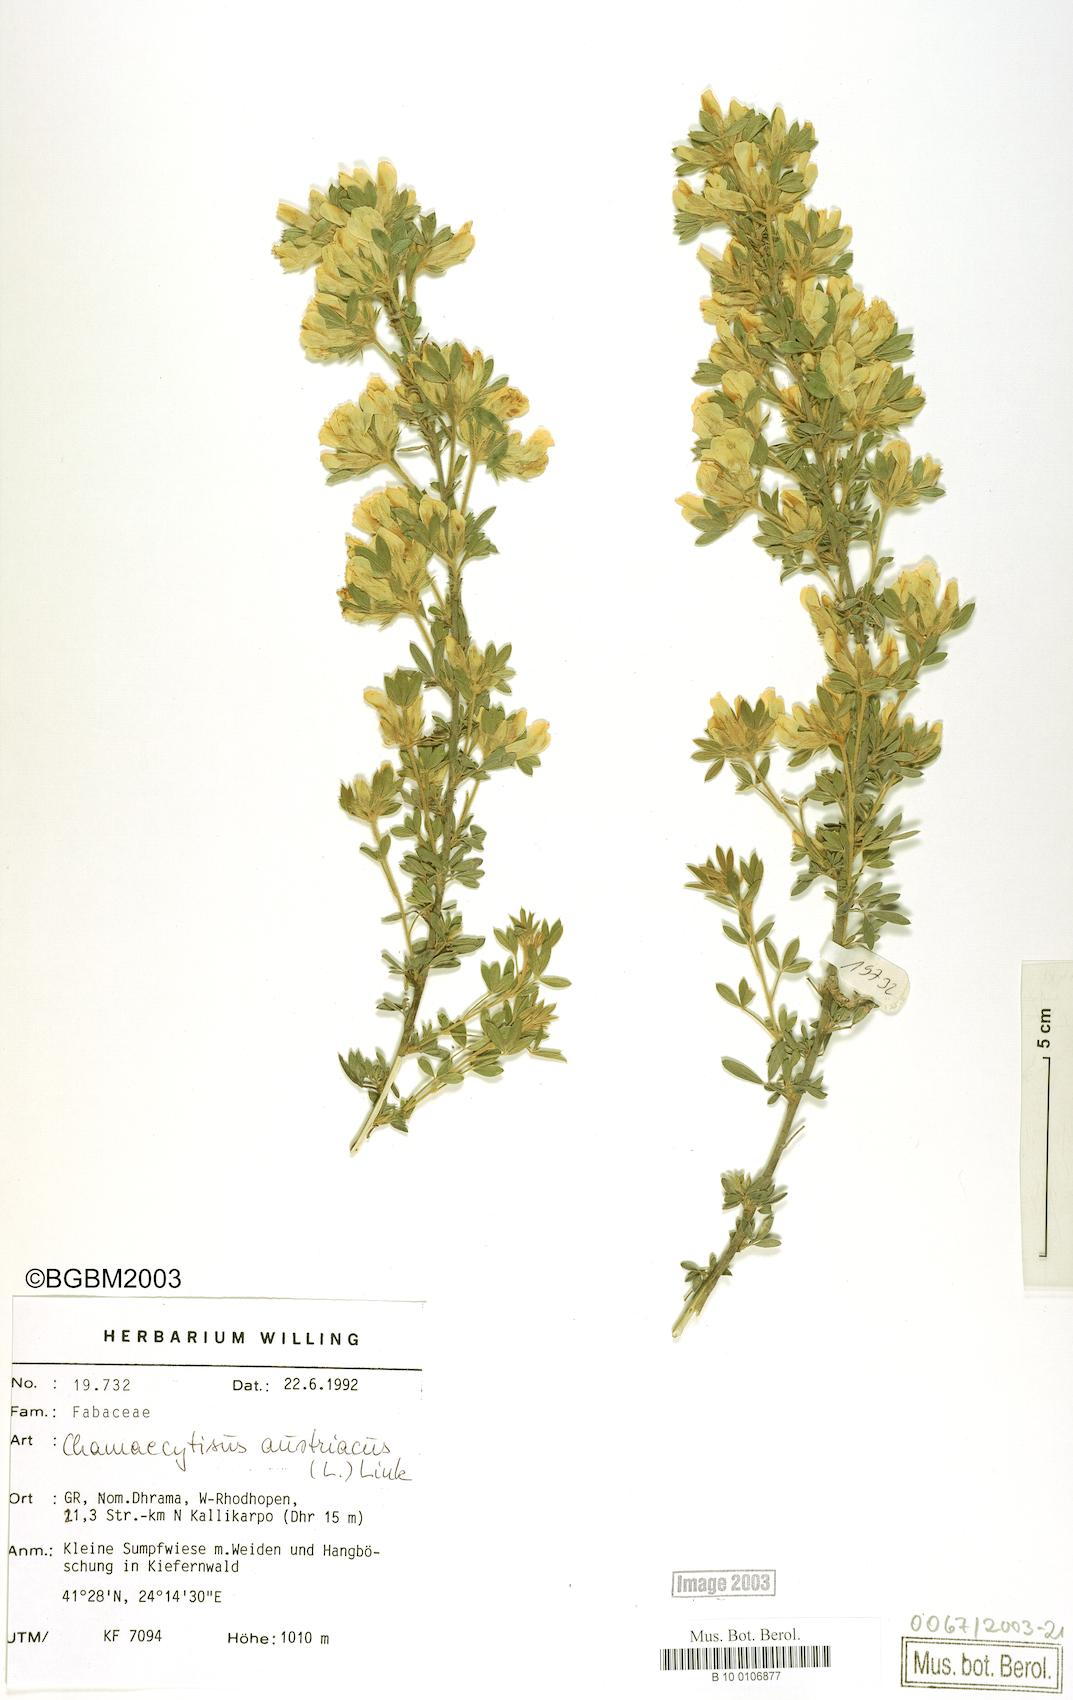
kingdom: Plantae
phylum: Tracheophyta
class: Magnoliopsida
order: Fabales
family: Fabaceae
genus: Chamaecytisus
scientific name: Chamaecytisus austriacus
